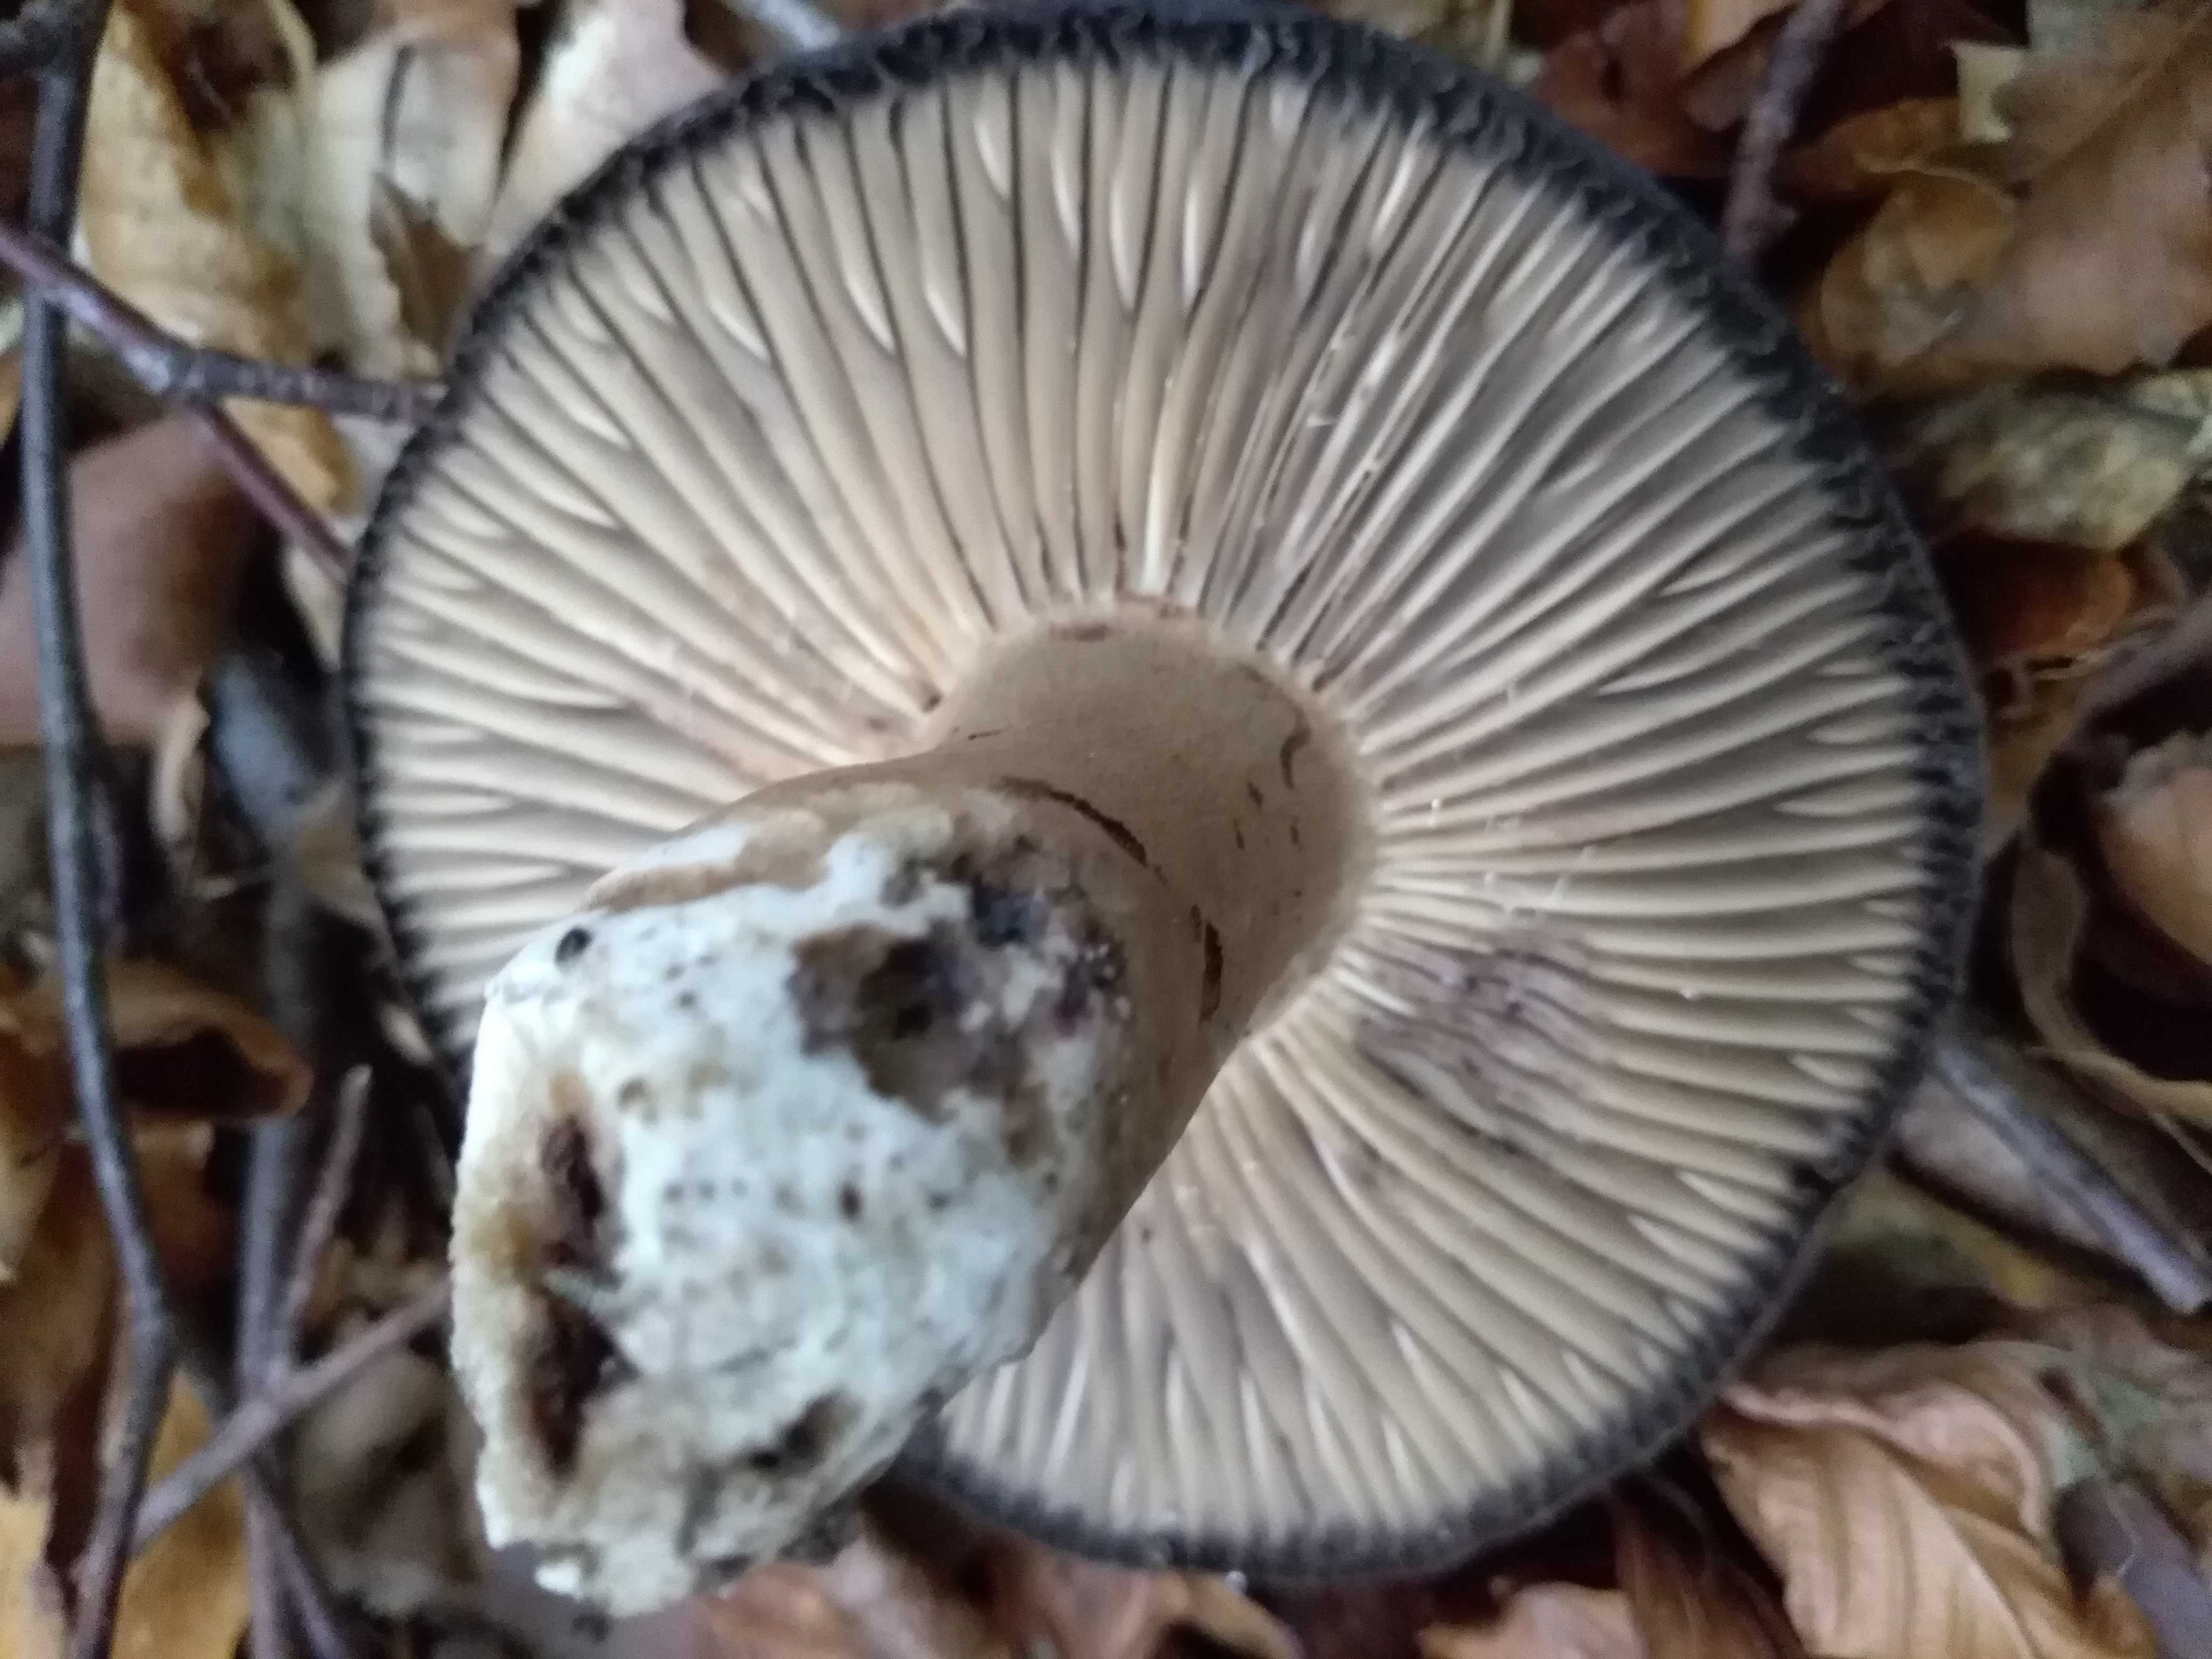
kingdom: Fungi
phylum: Basidiomycota
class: Agaricomycetes
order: Russulales
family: Russulaceae
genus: Russula
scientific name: Russula adusta
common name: sværtende skørhat
